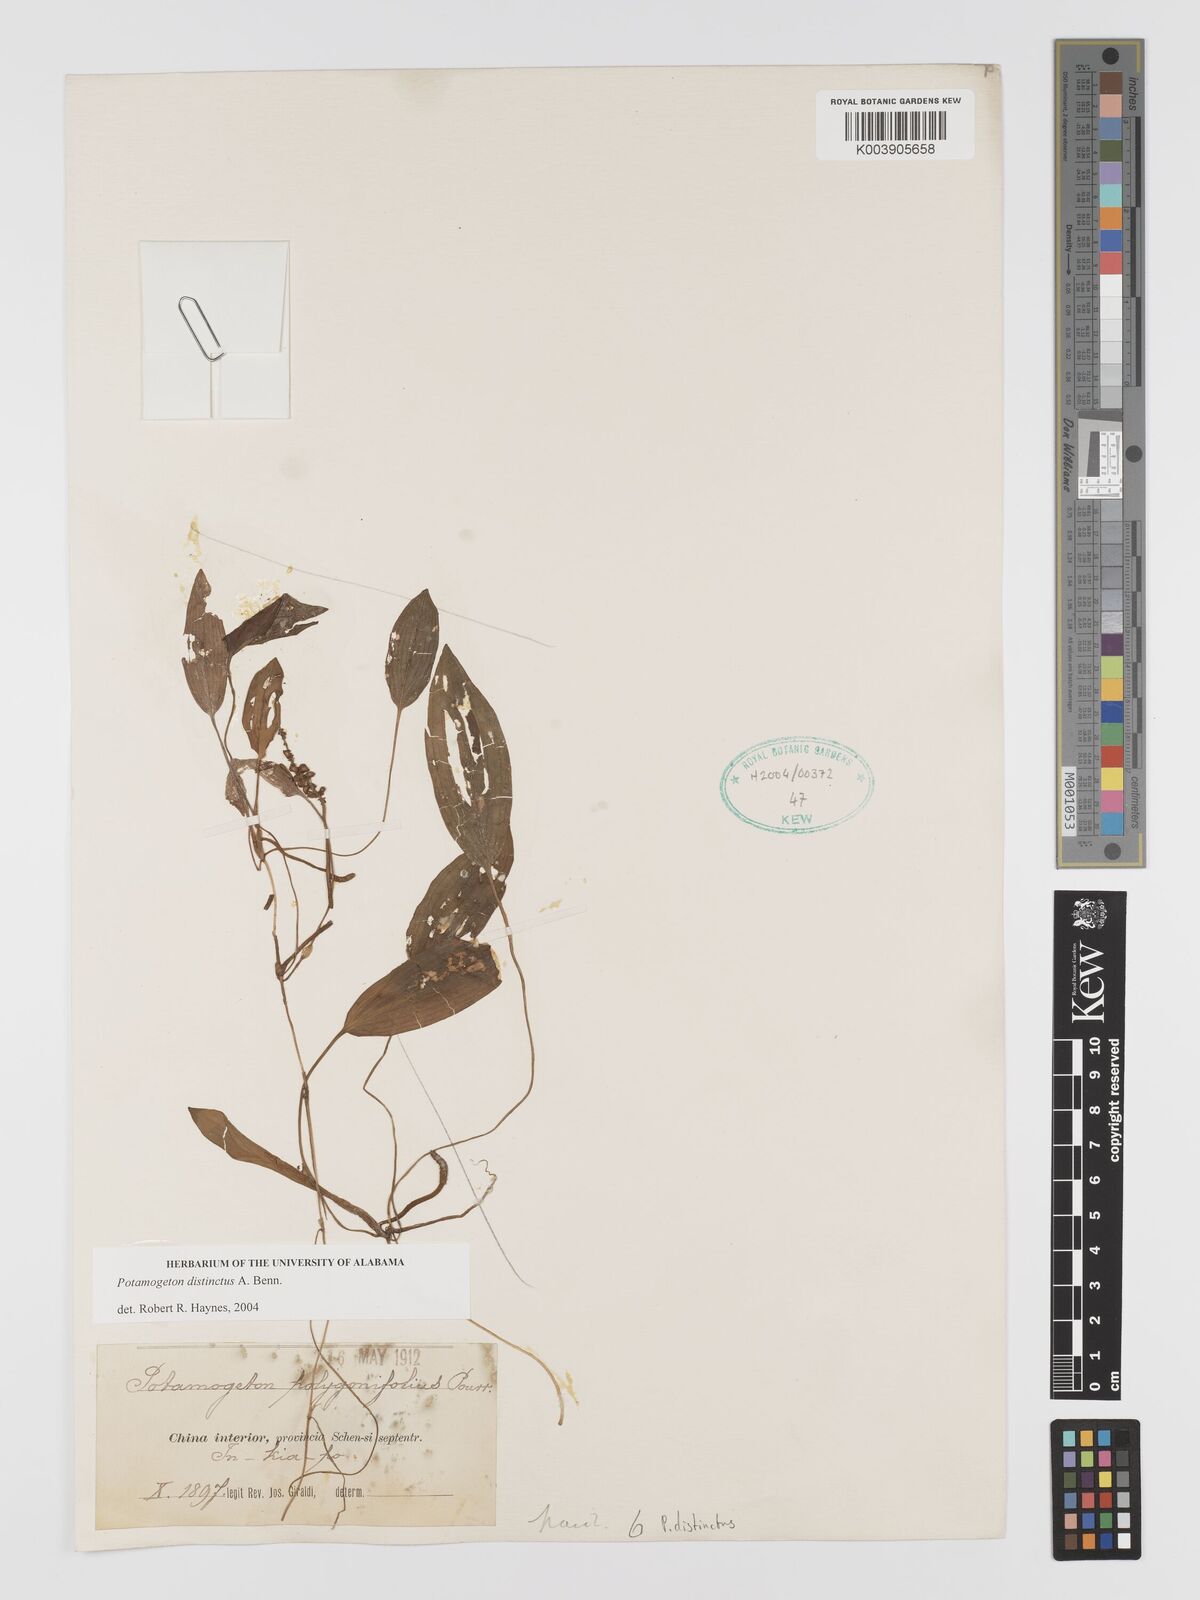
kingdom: Plantae
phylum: Tracheophyta
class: Liliopsida
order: Alismatales
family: Potamogetonaceae
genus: Potamogeton
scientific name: Potamogeton distinctus
